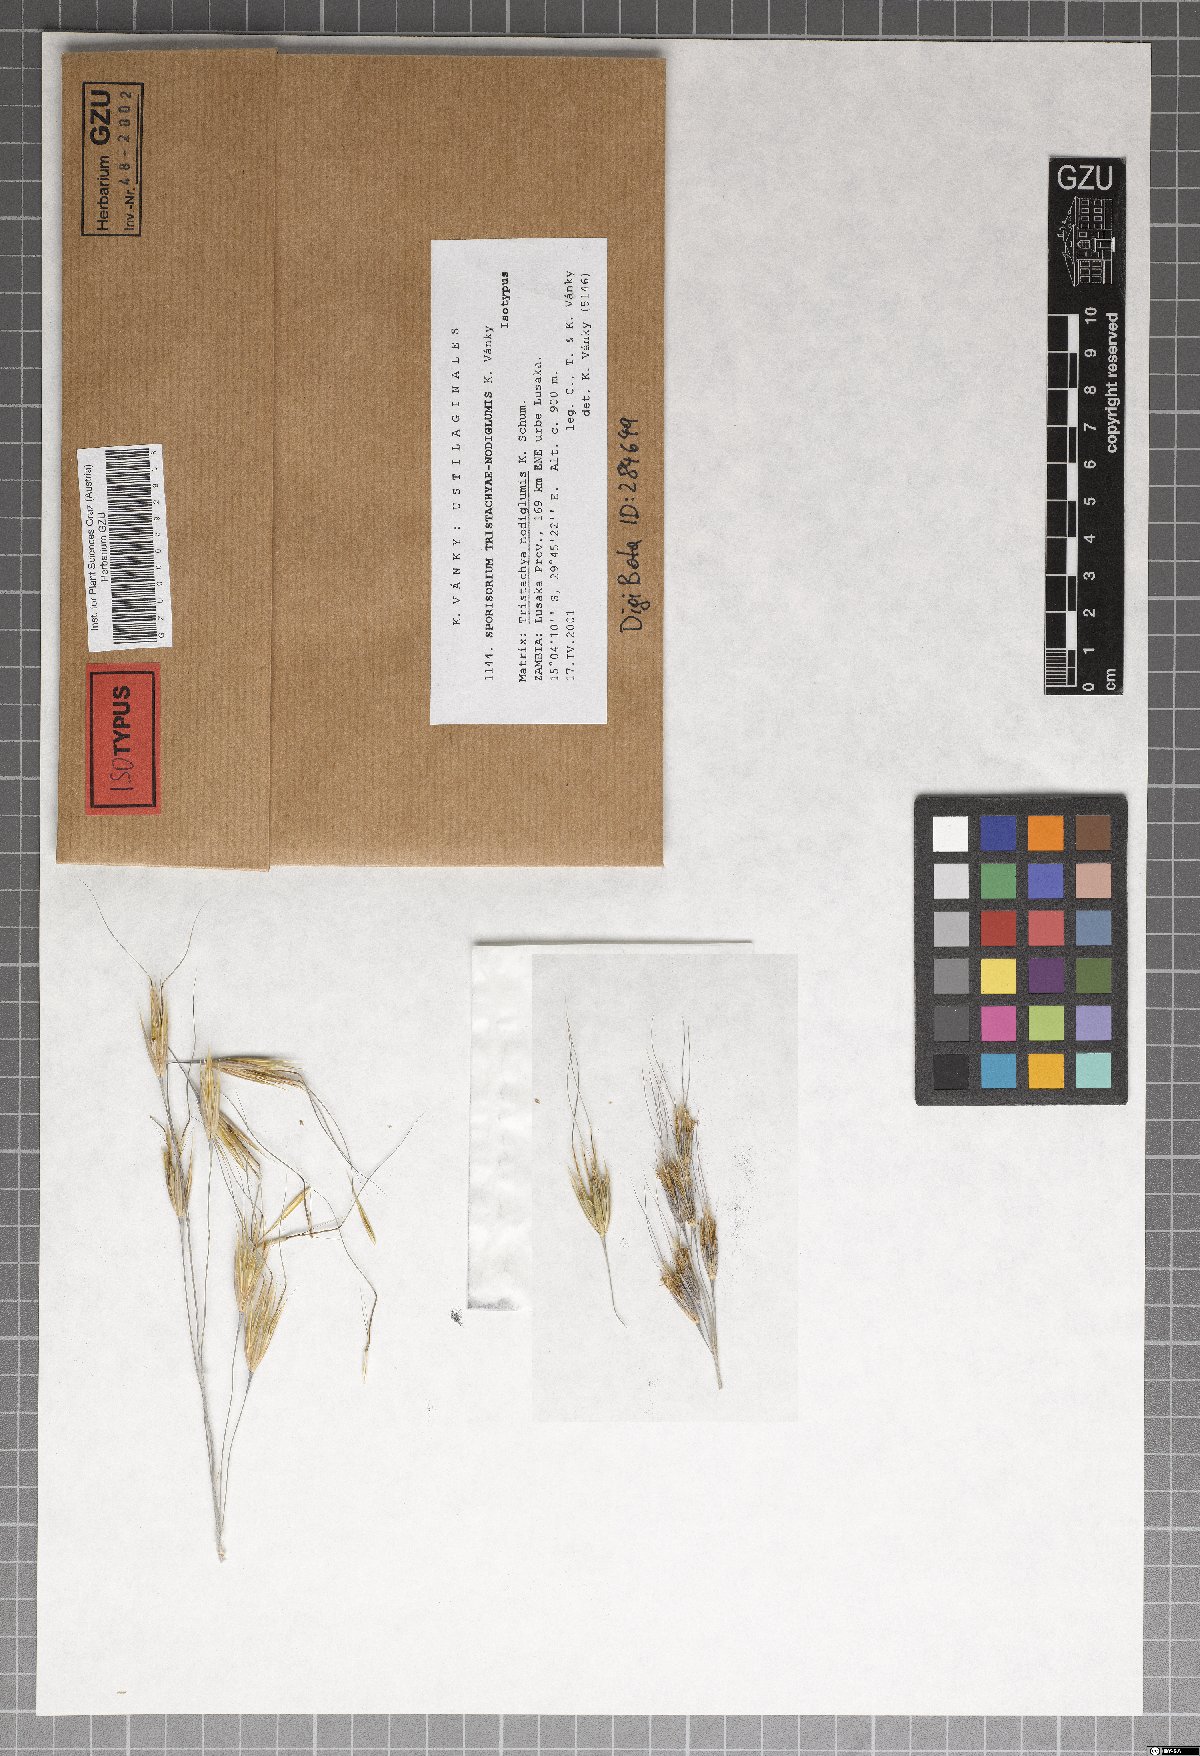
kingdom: Fungi
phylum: Basidiomycota
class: Ustilaginomycetes
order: Ustilaginales
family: Ustilaginaceae
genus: Anthracocystis
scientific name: Anthracocystis tristachyae-nodiglumis
